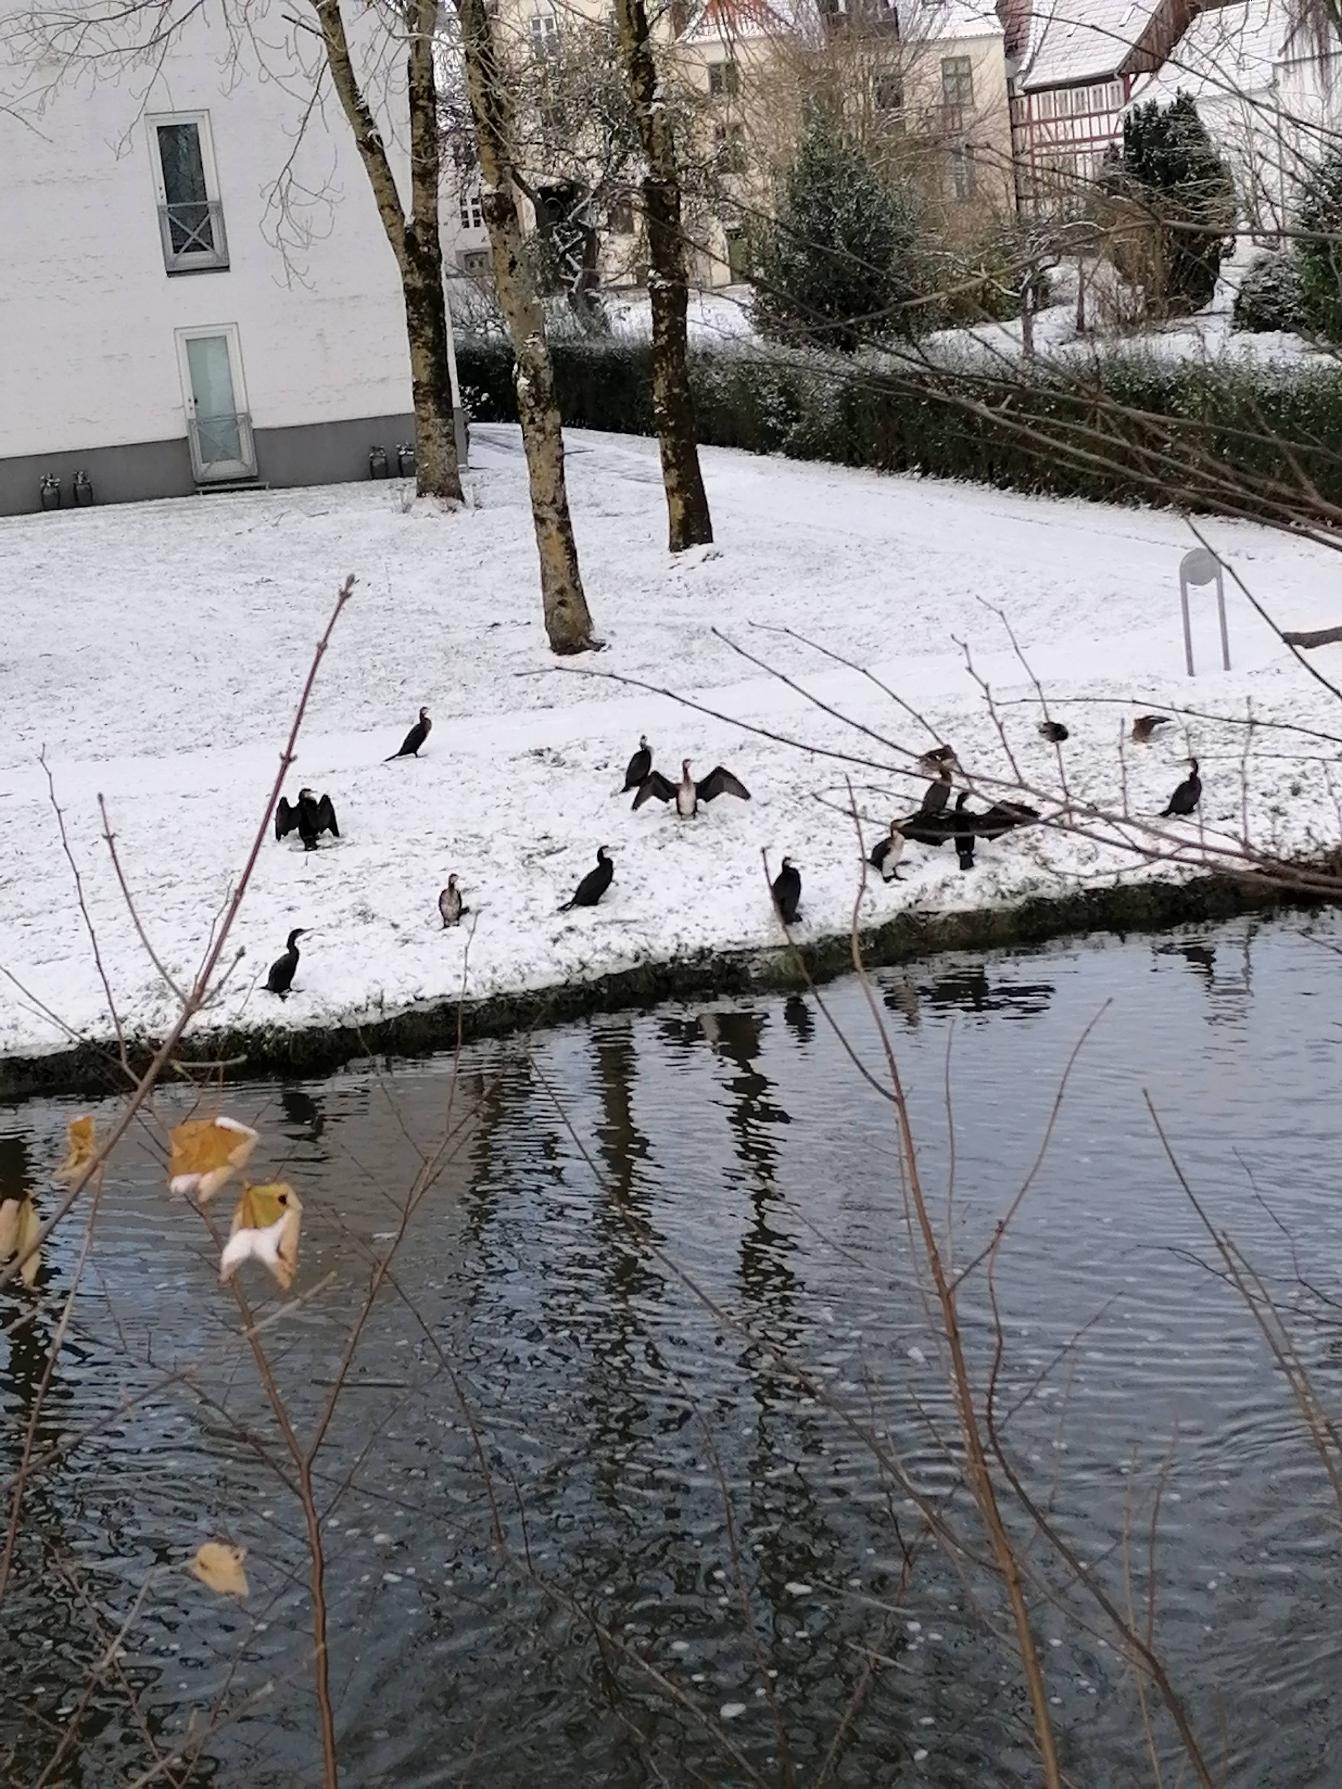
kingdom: Animalia
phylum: Chordata
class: Aves
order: Suliformes
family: Phalacrocoracidae
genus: Phalacrocorax
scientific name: Phalacrocorax carbo
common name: Skarv
